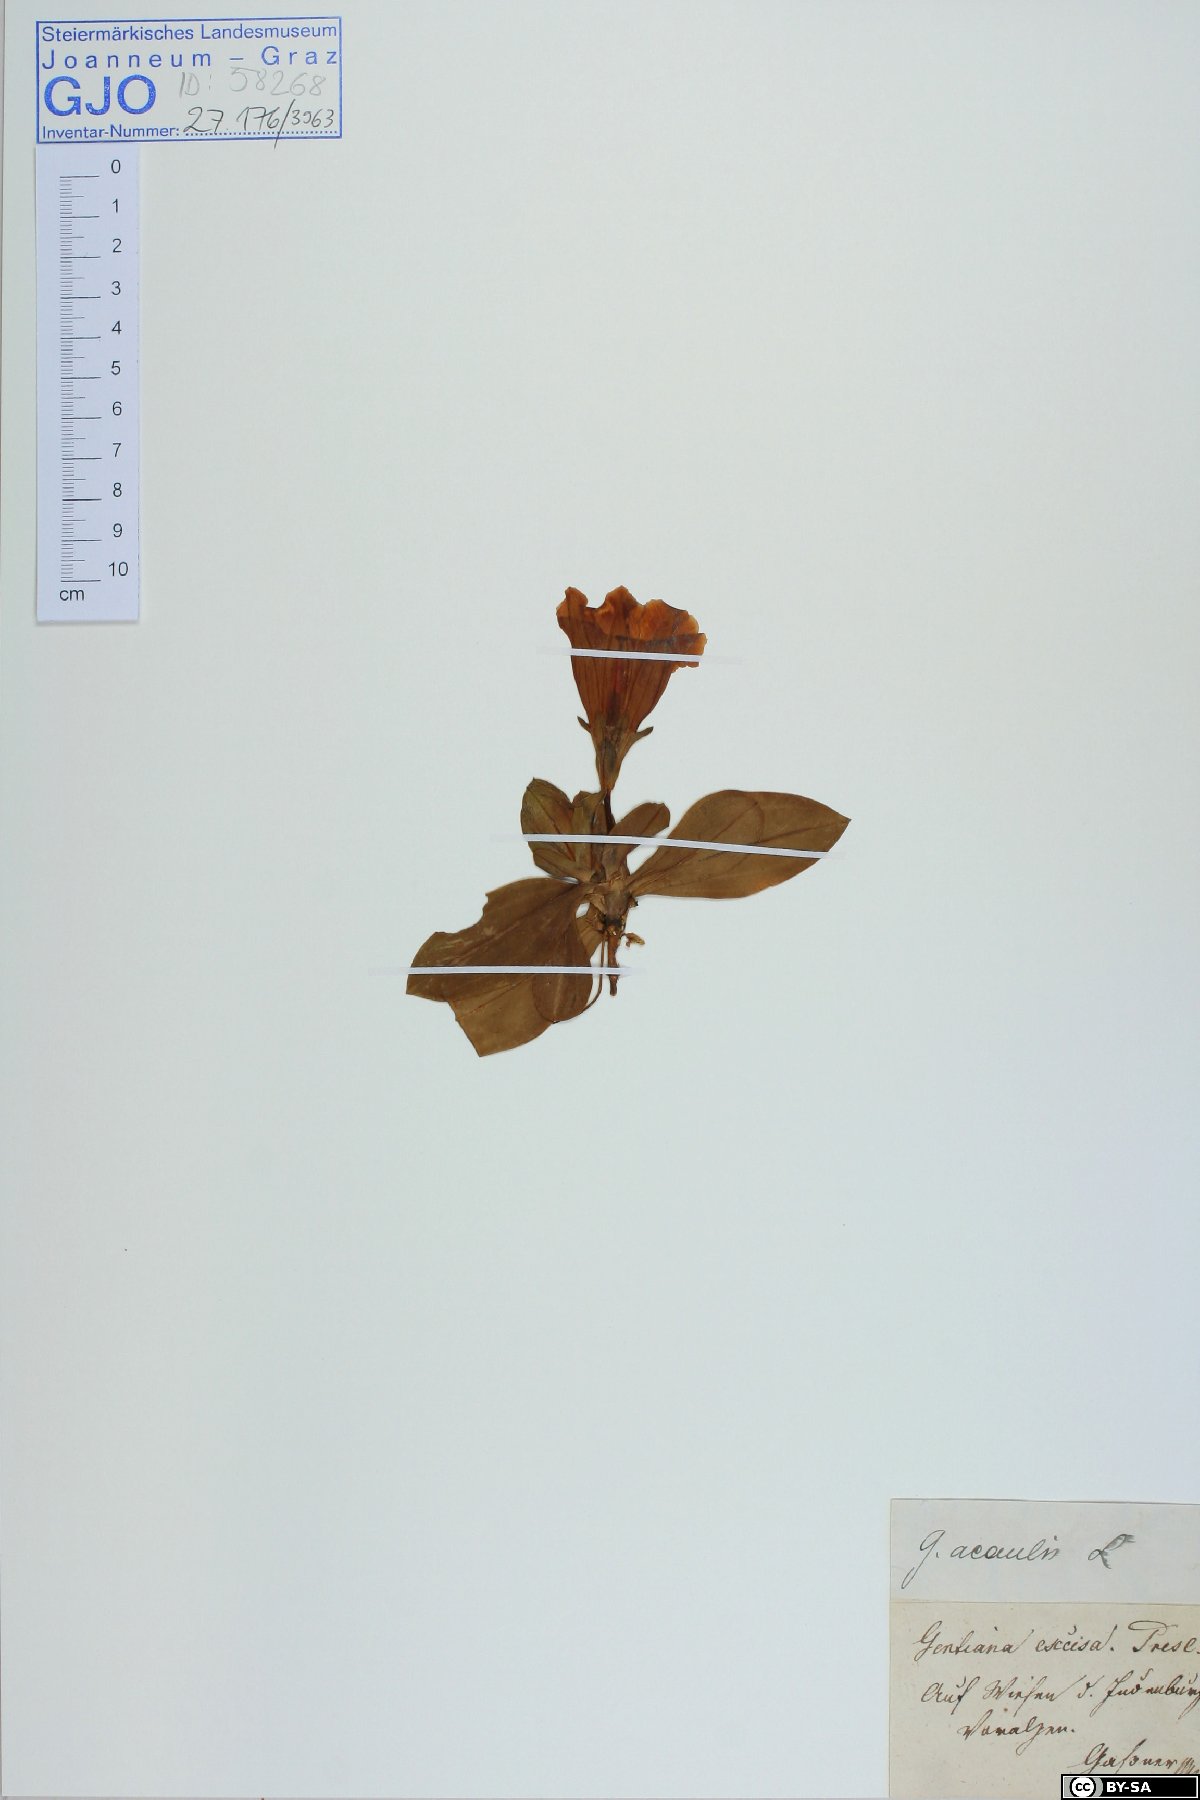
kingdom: Plantae
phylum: Tracheophyta
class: Magnoliopsida
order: Gentianales
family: Gentianaceae
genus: Gentiana
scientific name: Gentiana acaulis
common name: Trumpet gentian
